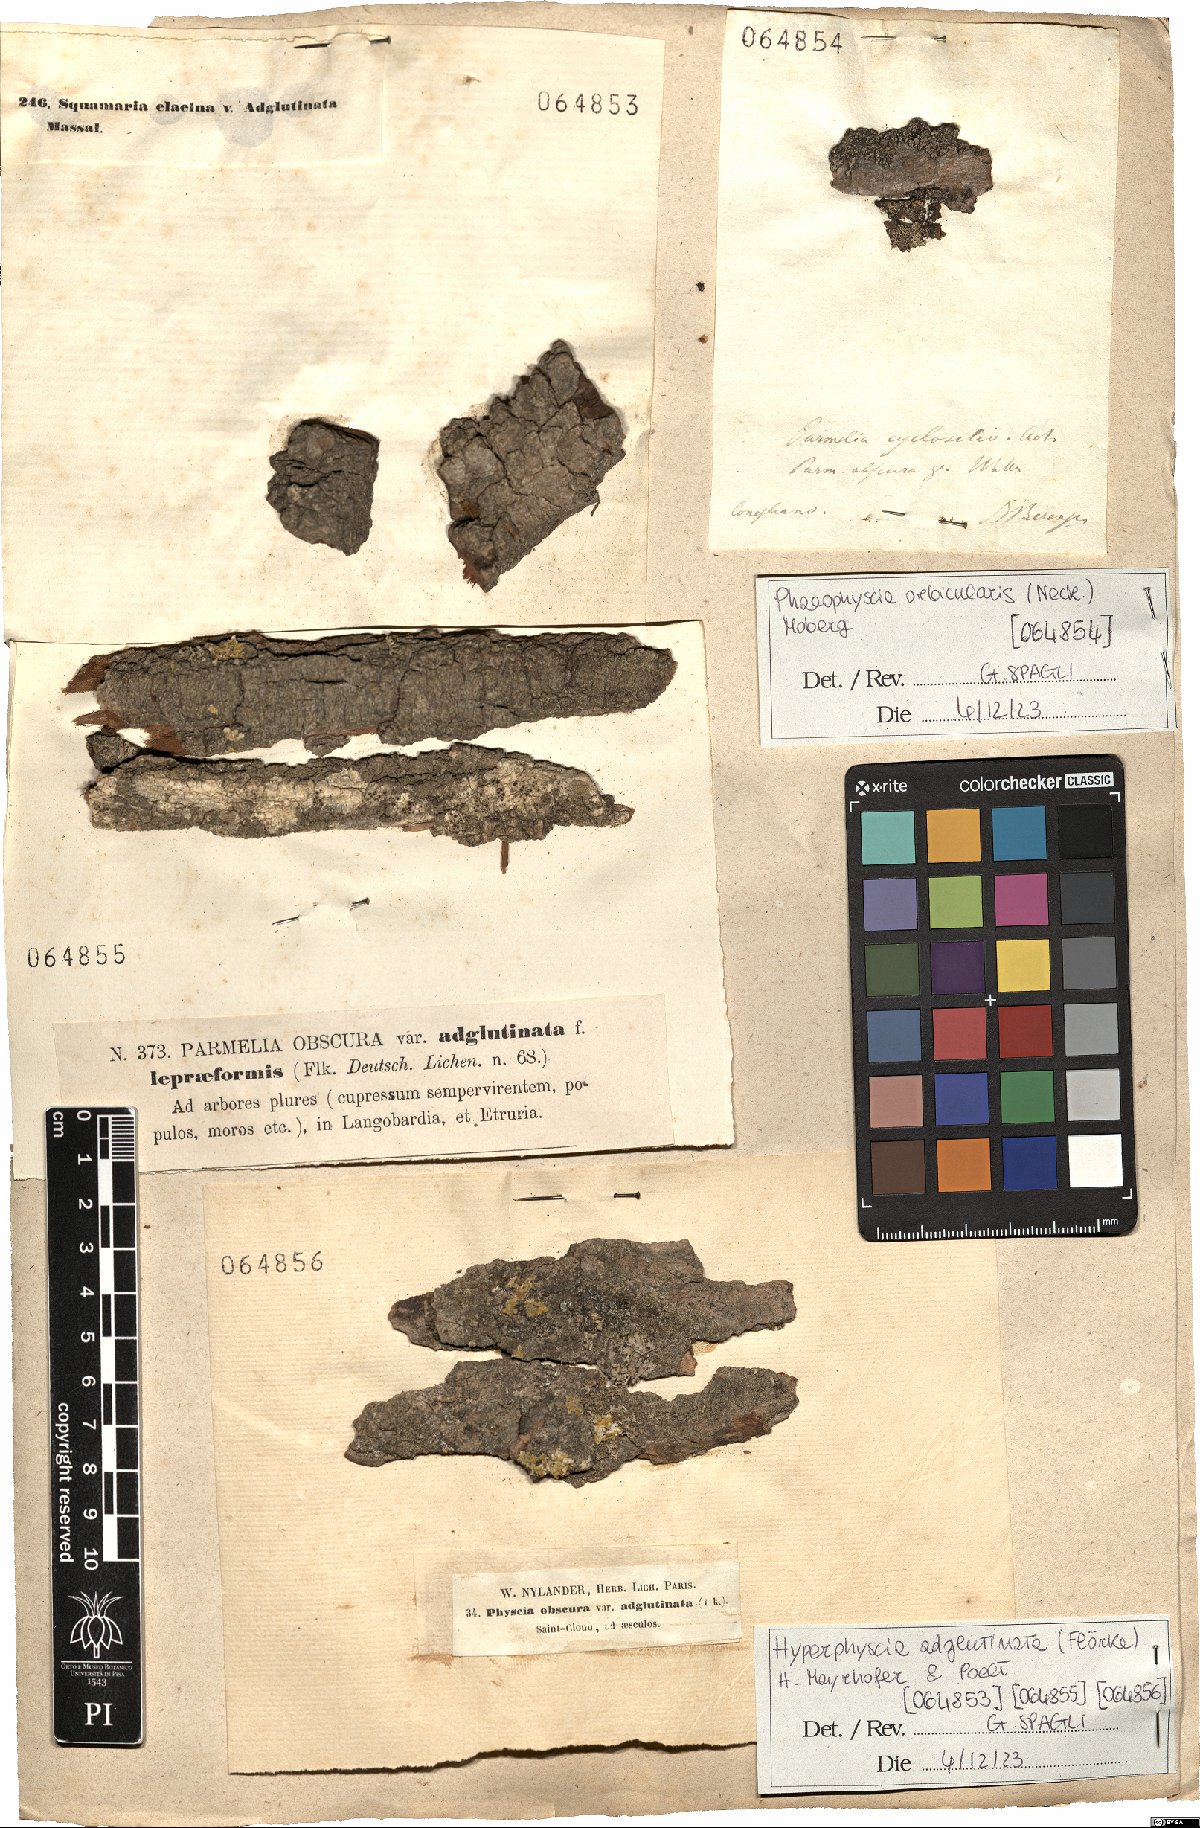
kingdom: Fungi
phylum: Ascomycota
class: Lecanoromycetes
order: Caliciales
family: Physciaceae
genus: Hyperphyscia
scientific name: Hyperphyscia adglutinata
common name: Grainy shadow-crust lichen
